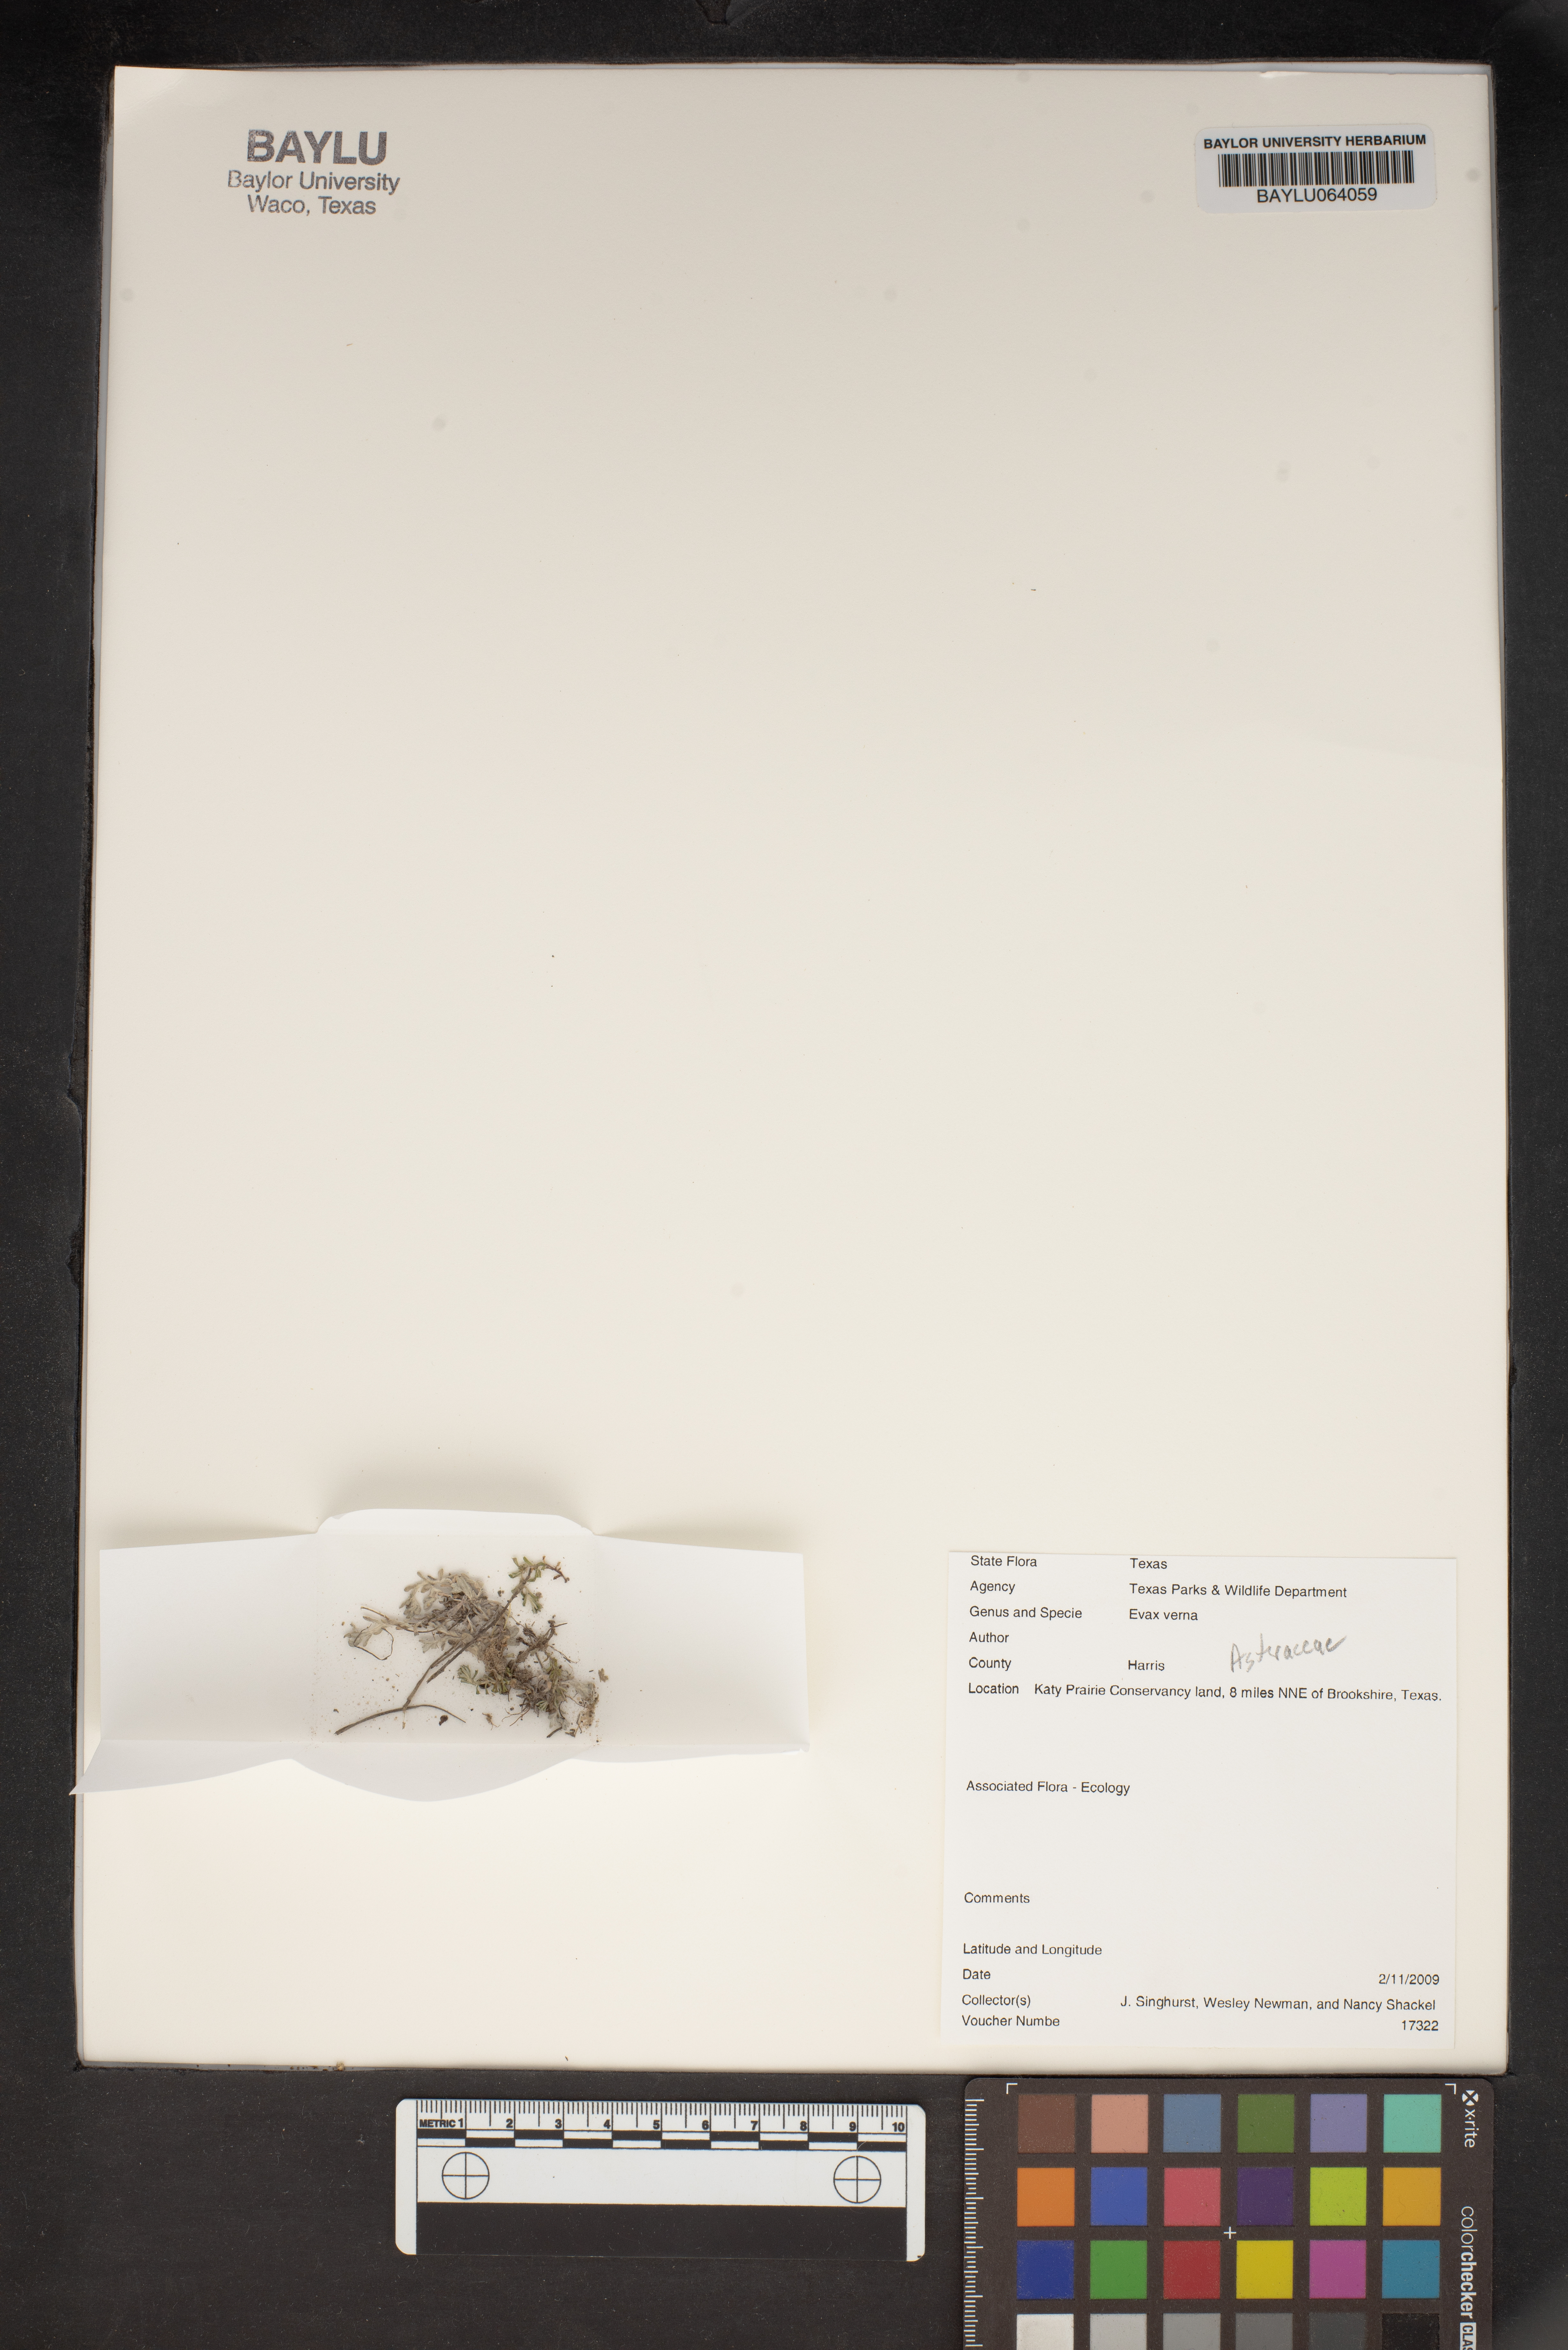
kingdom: Plantae
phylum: Tracheophyta
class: Magnoliopsida
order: Asterales
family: Asteraceae
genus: Diaperia
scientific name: Diaperia verna
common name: Many-stem rabbit-tobacco
